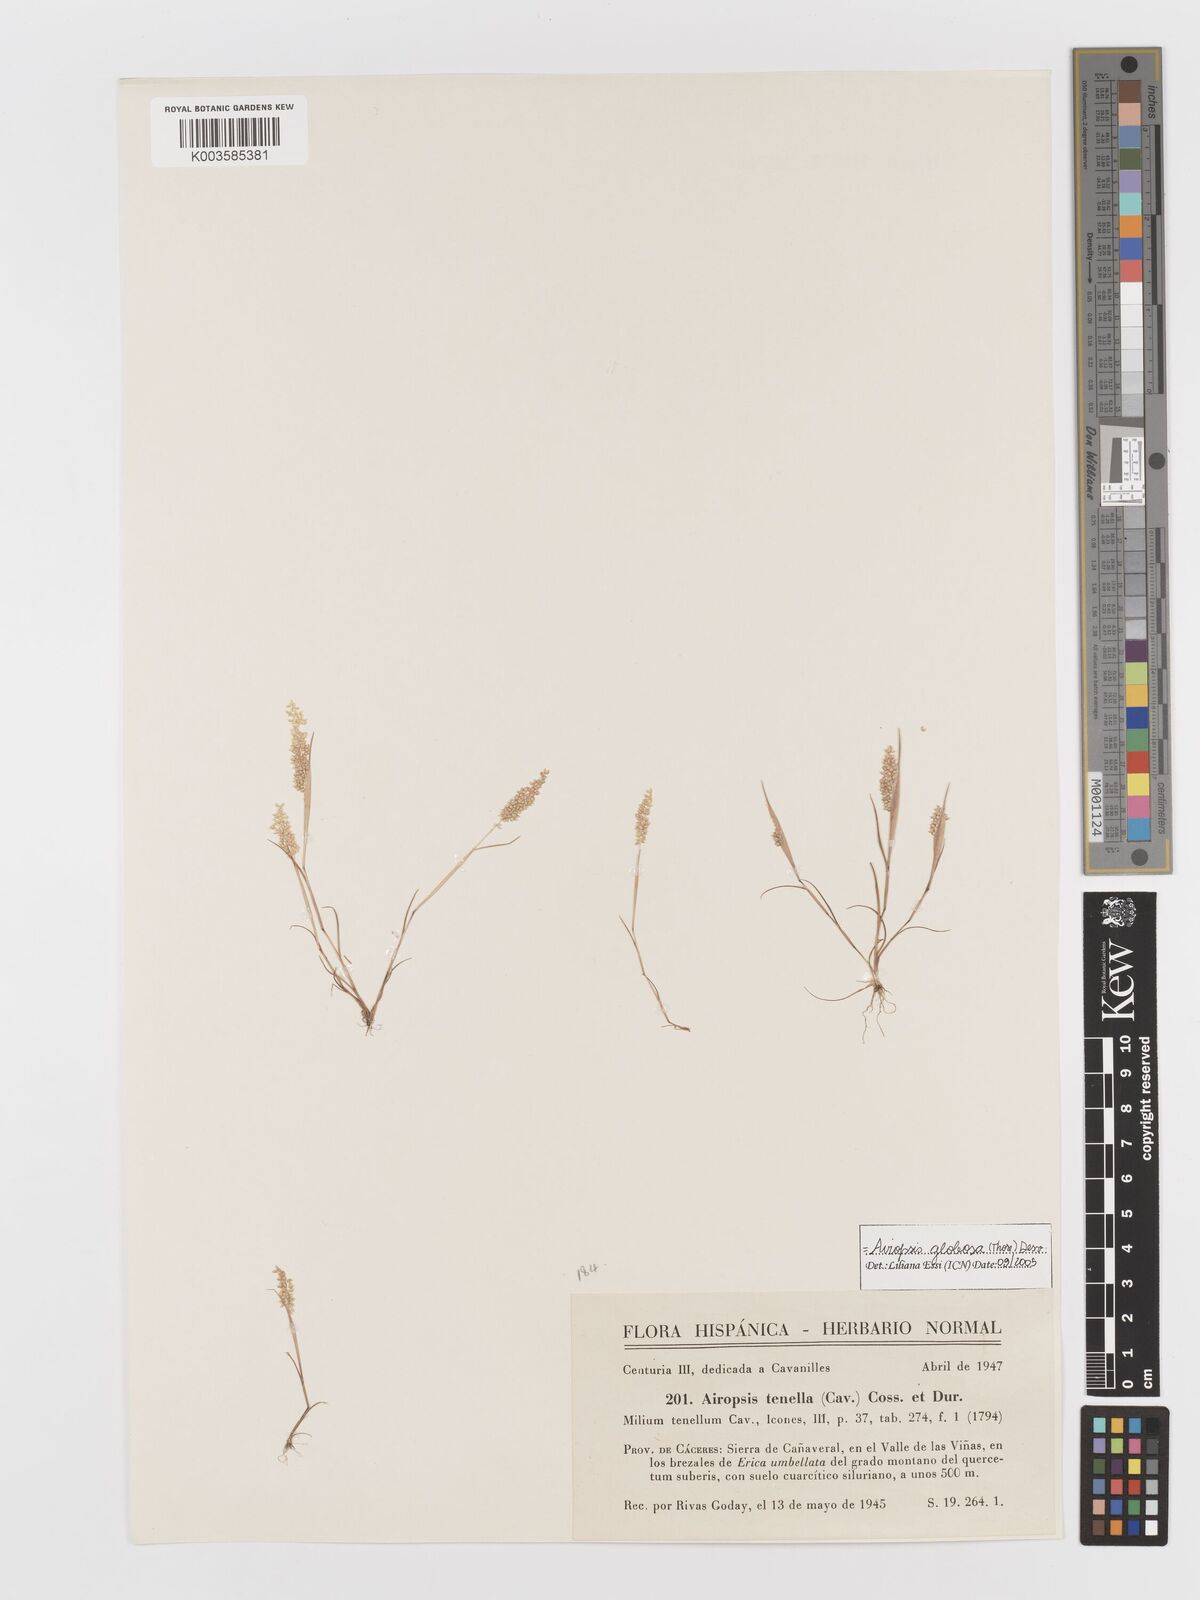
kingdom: Plantae
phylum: Tracheophyta
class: Liliopsida
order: Poales
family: Poaceae
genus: Airopsis
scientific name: Airopsis tenella
